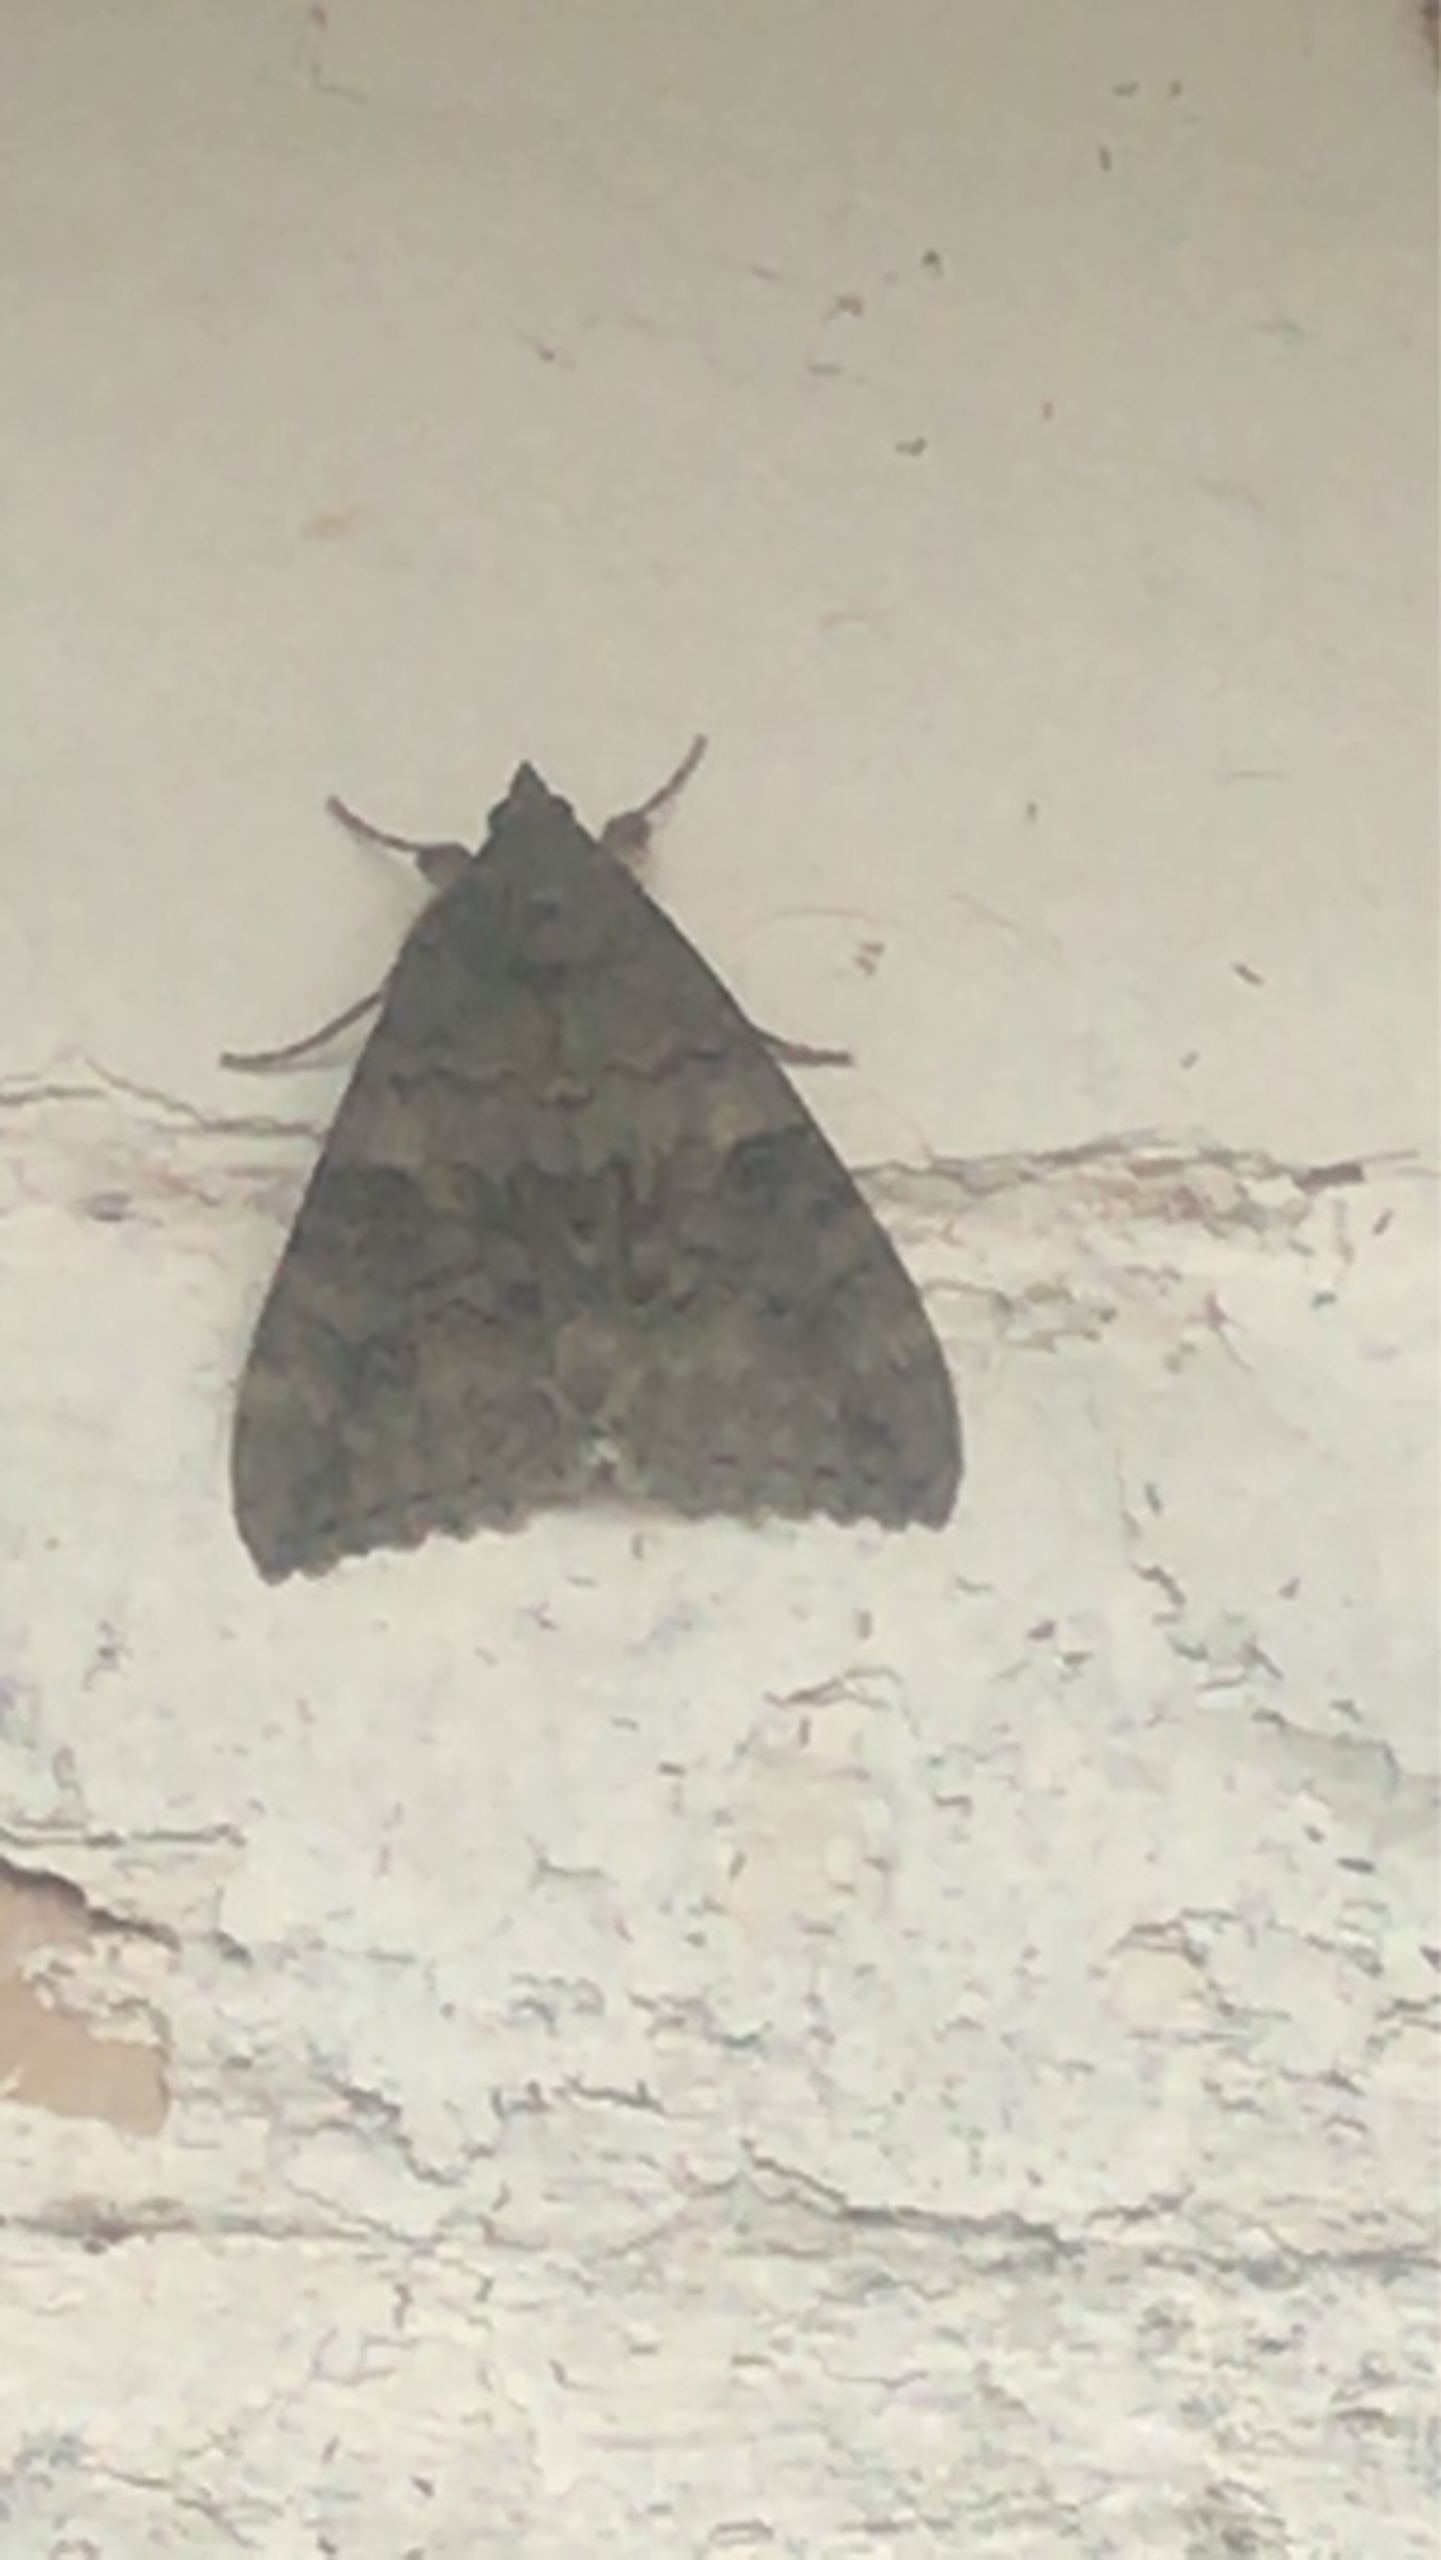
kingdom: Animalia
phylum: Arthropoda
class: Insecta
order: Lepidoptera
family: Erebidae
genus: Catocala
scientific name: Catocala nupta
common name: Rødt ordensbånd
